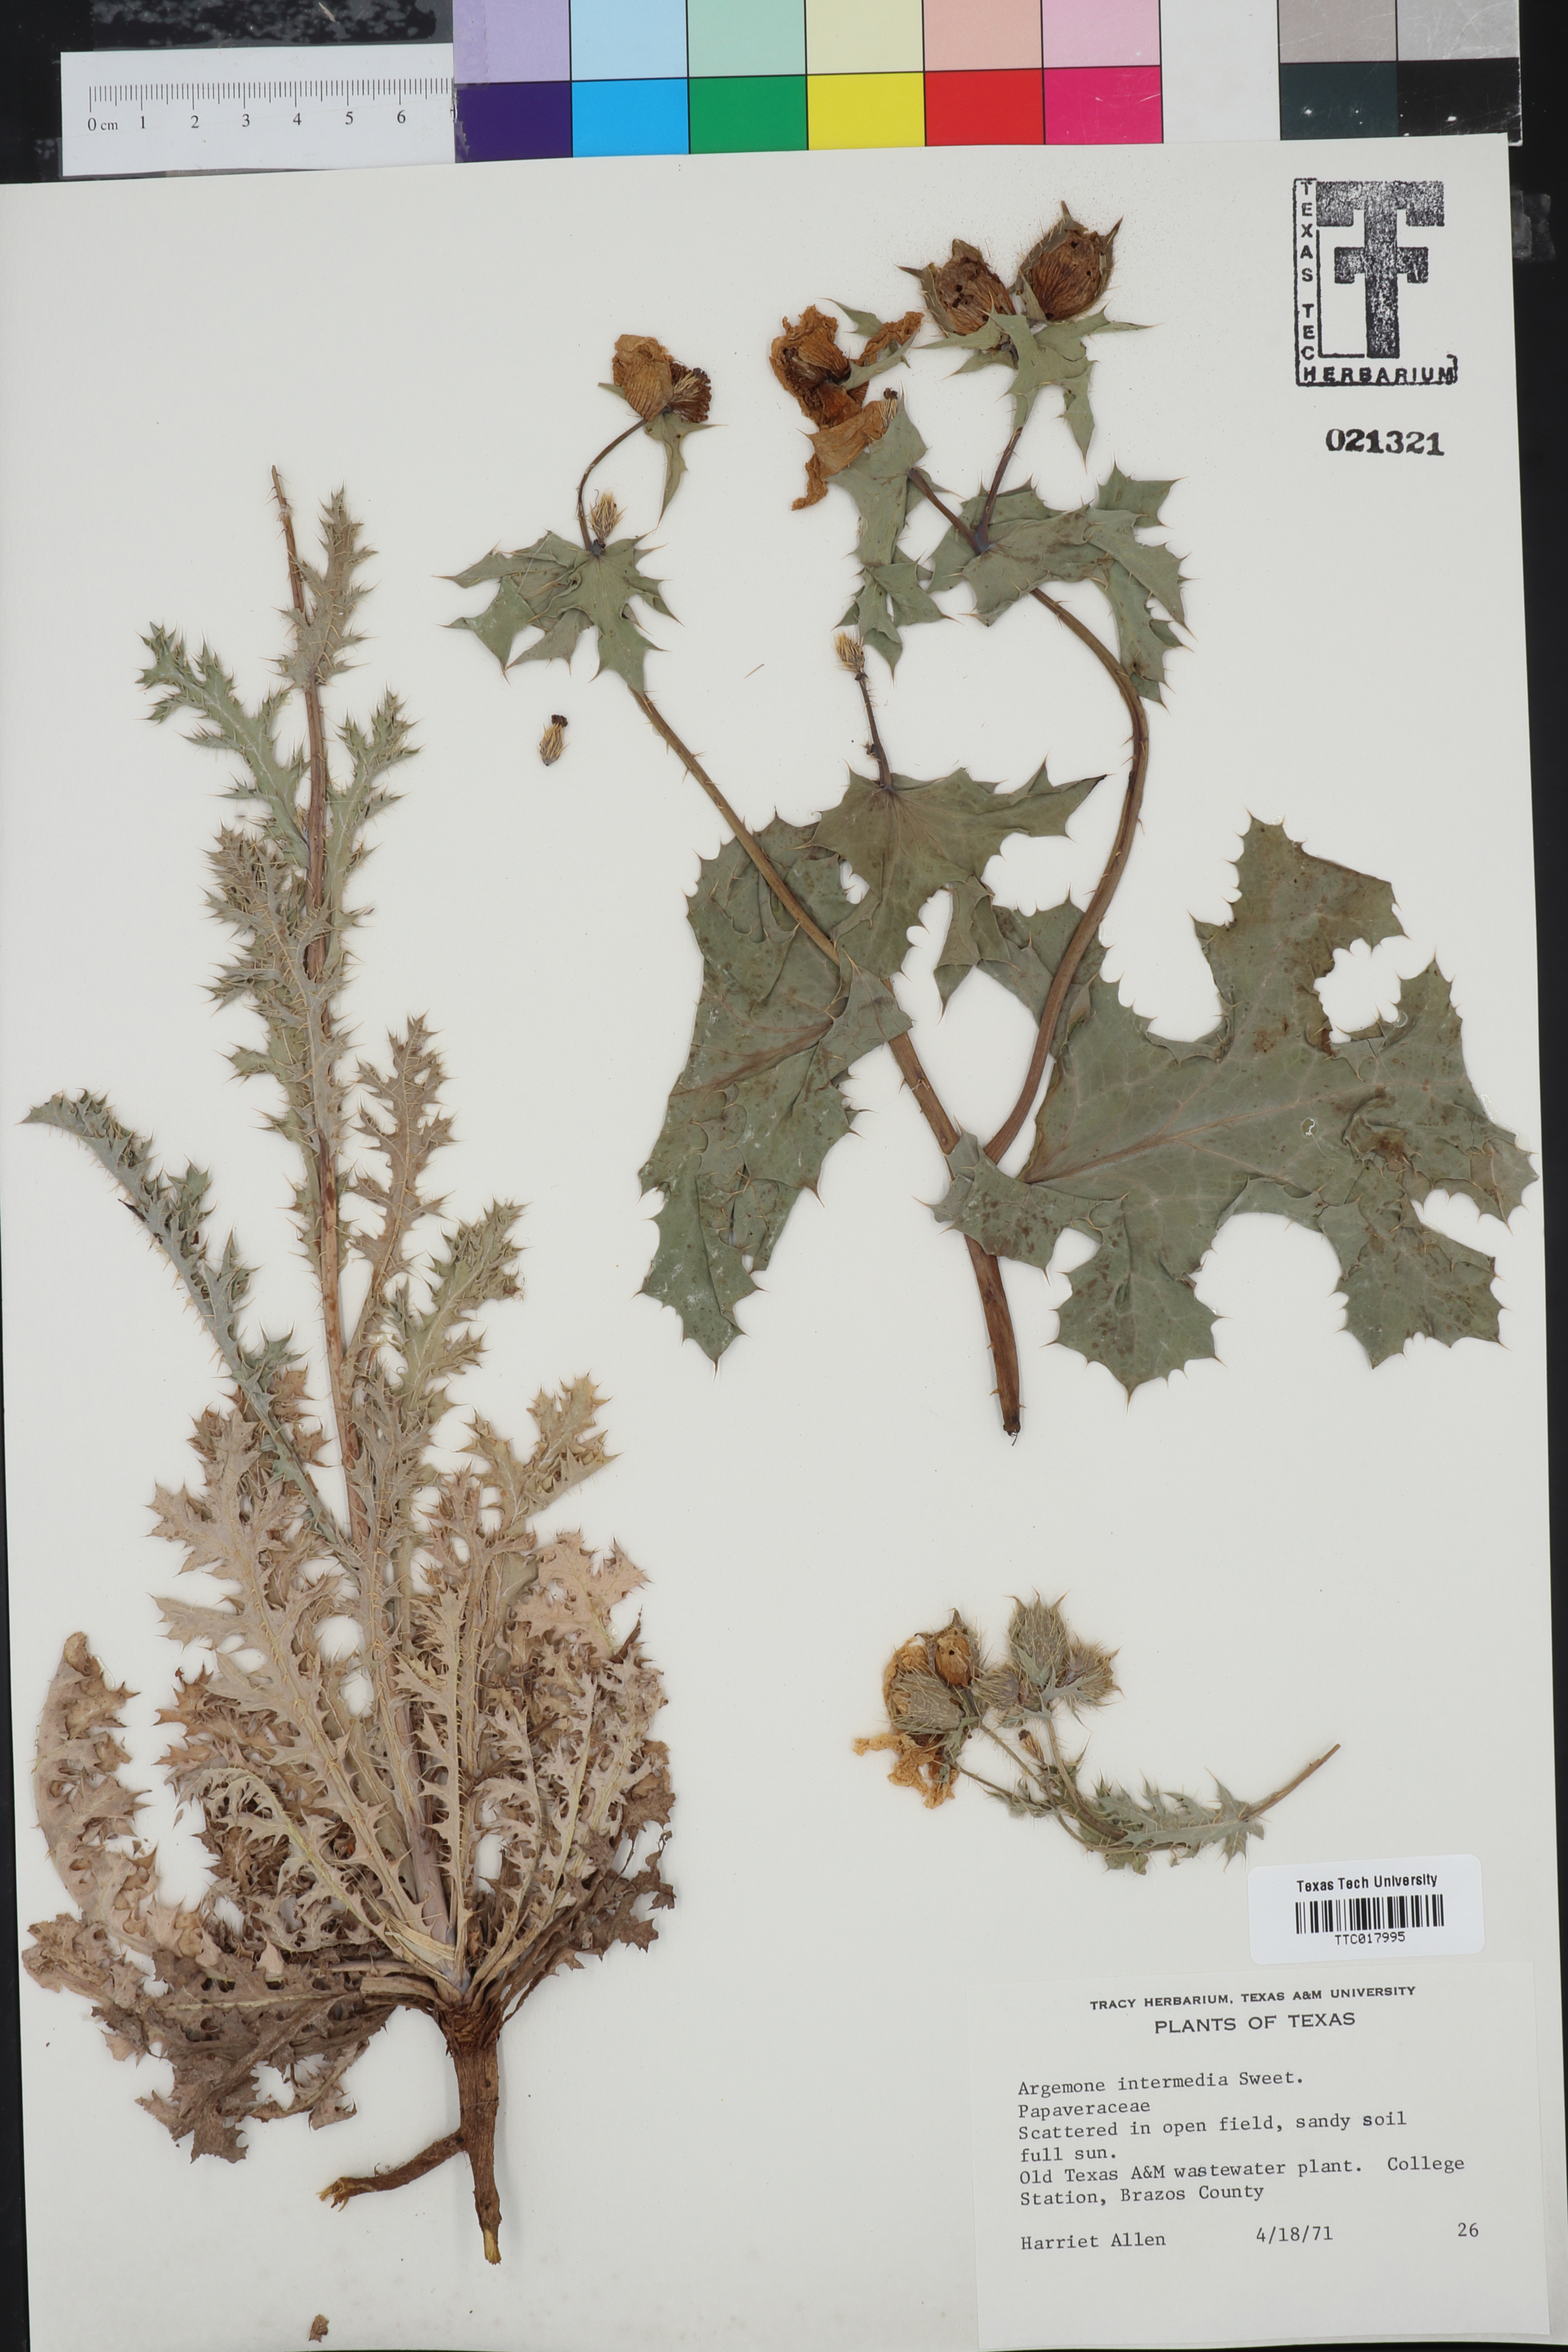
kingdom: Plantae
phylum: Tracheophyta
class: Magnoliopsida
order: Ranunculales
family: Papaveraceae
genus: Argemone
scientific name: Argemone intermedia
